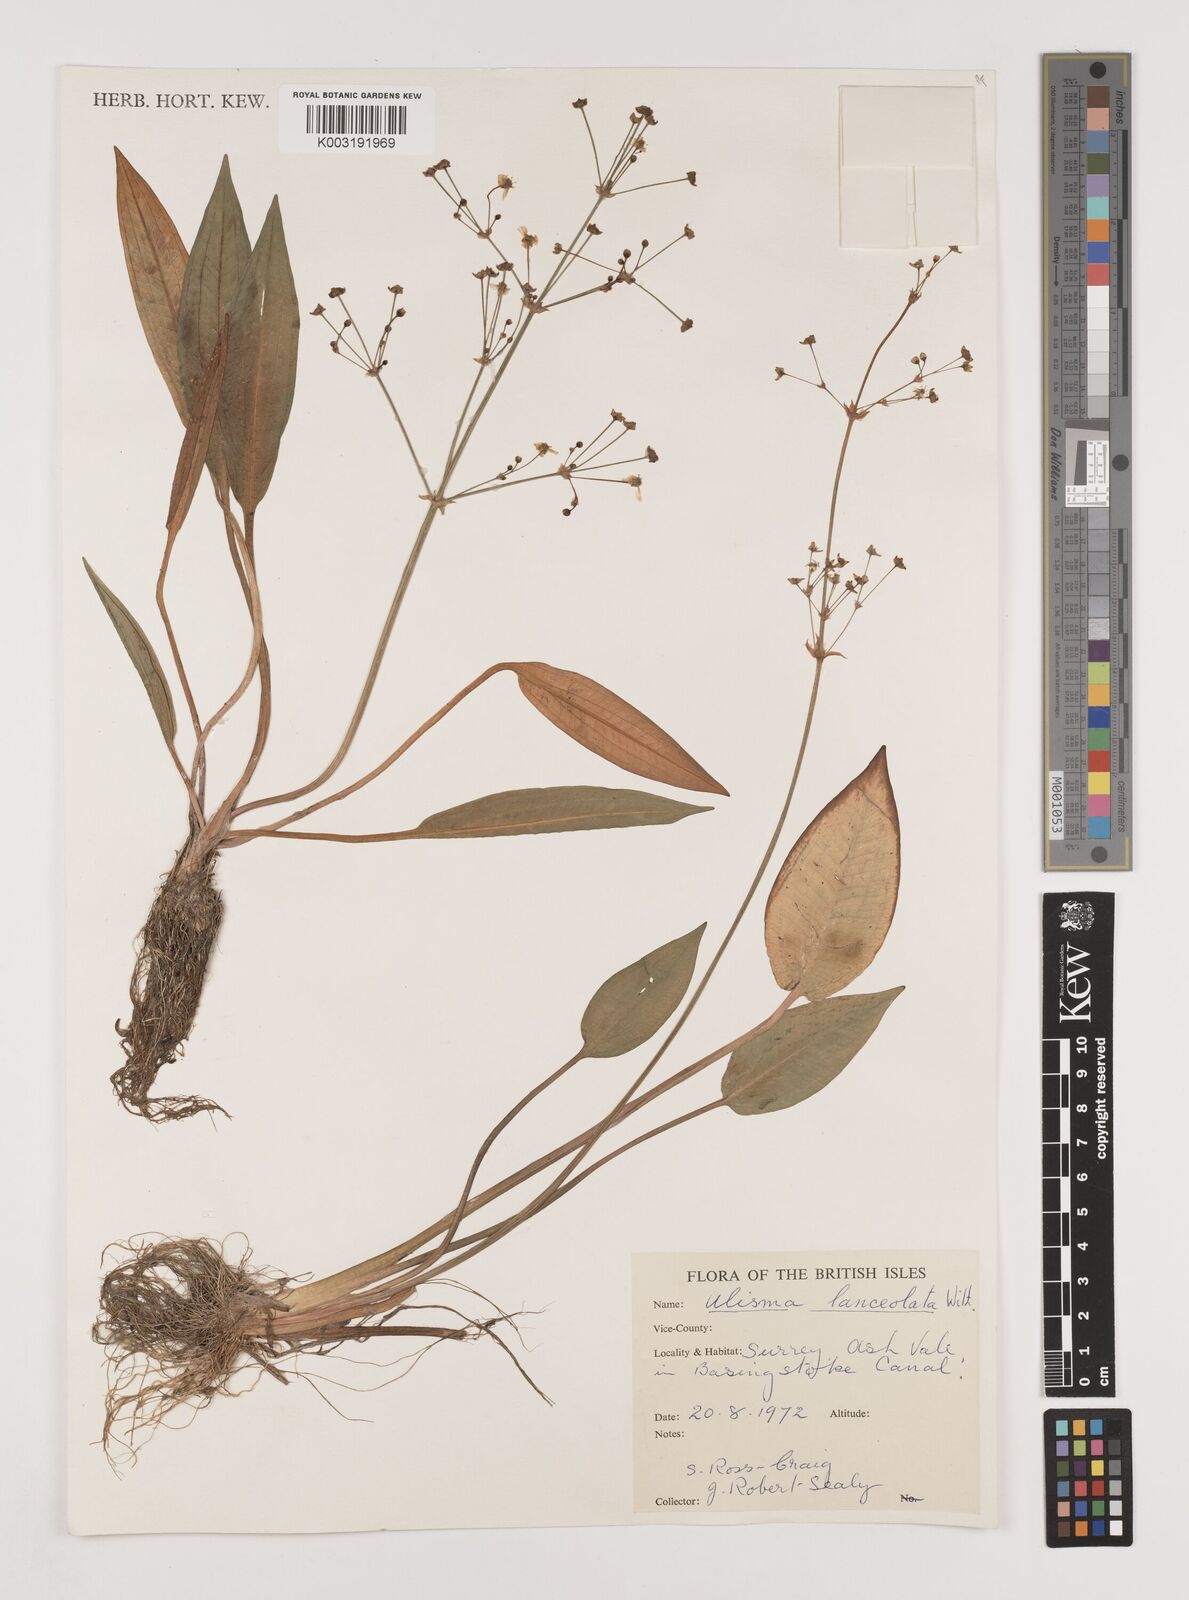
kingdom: Plantae
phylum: Tracheophyta
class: Liliopsida
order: Alismatales
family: Alismataceae
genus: Alisma
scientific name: Alisma lanceolatum
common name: Narrow-leaved water-plantain
